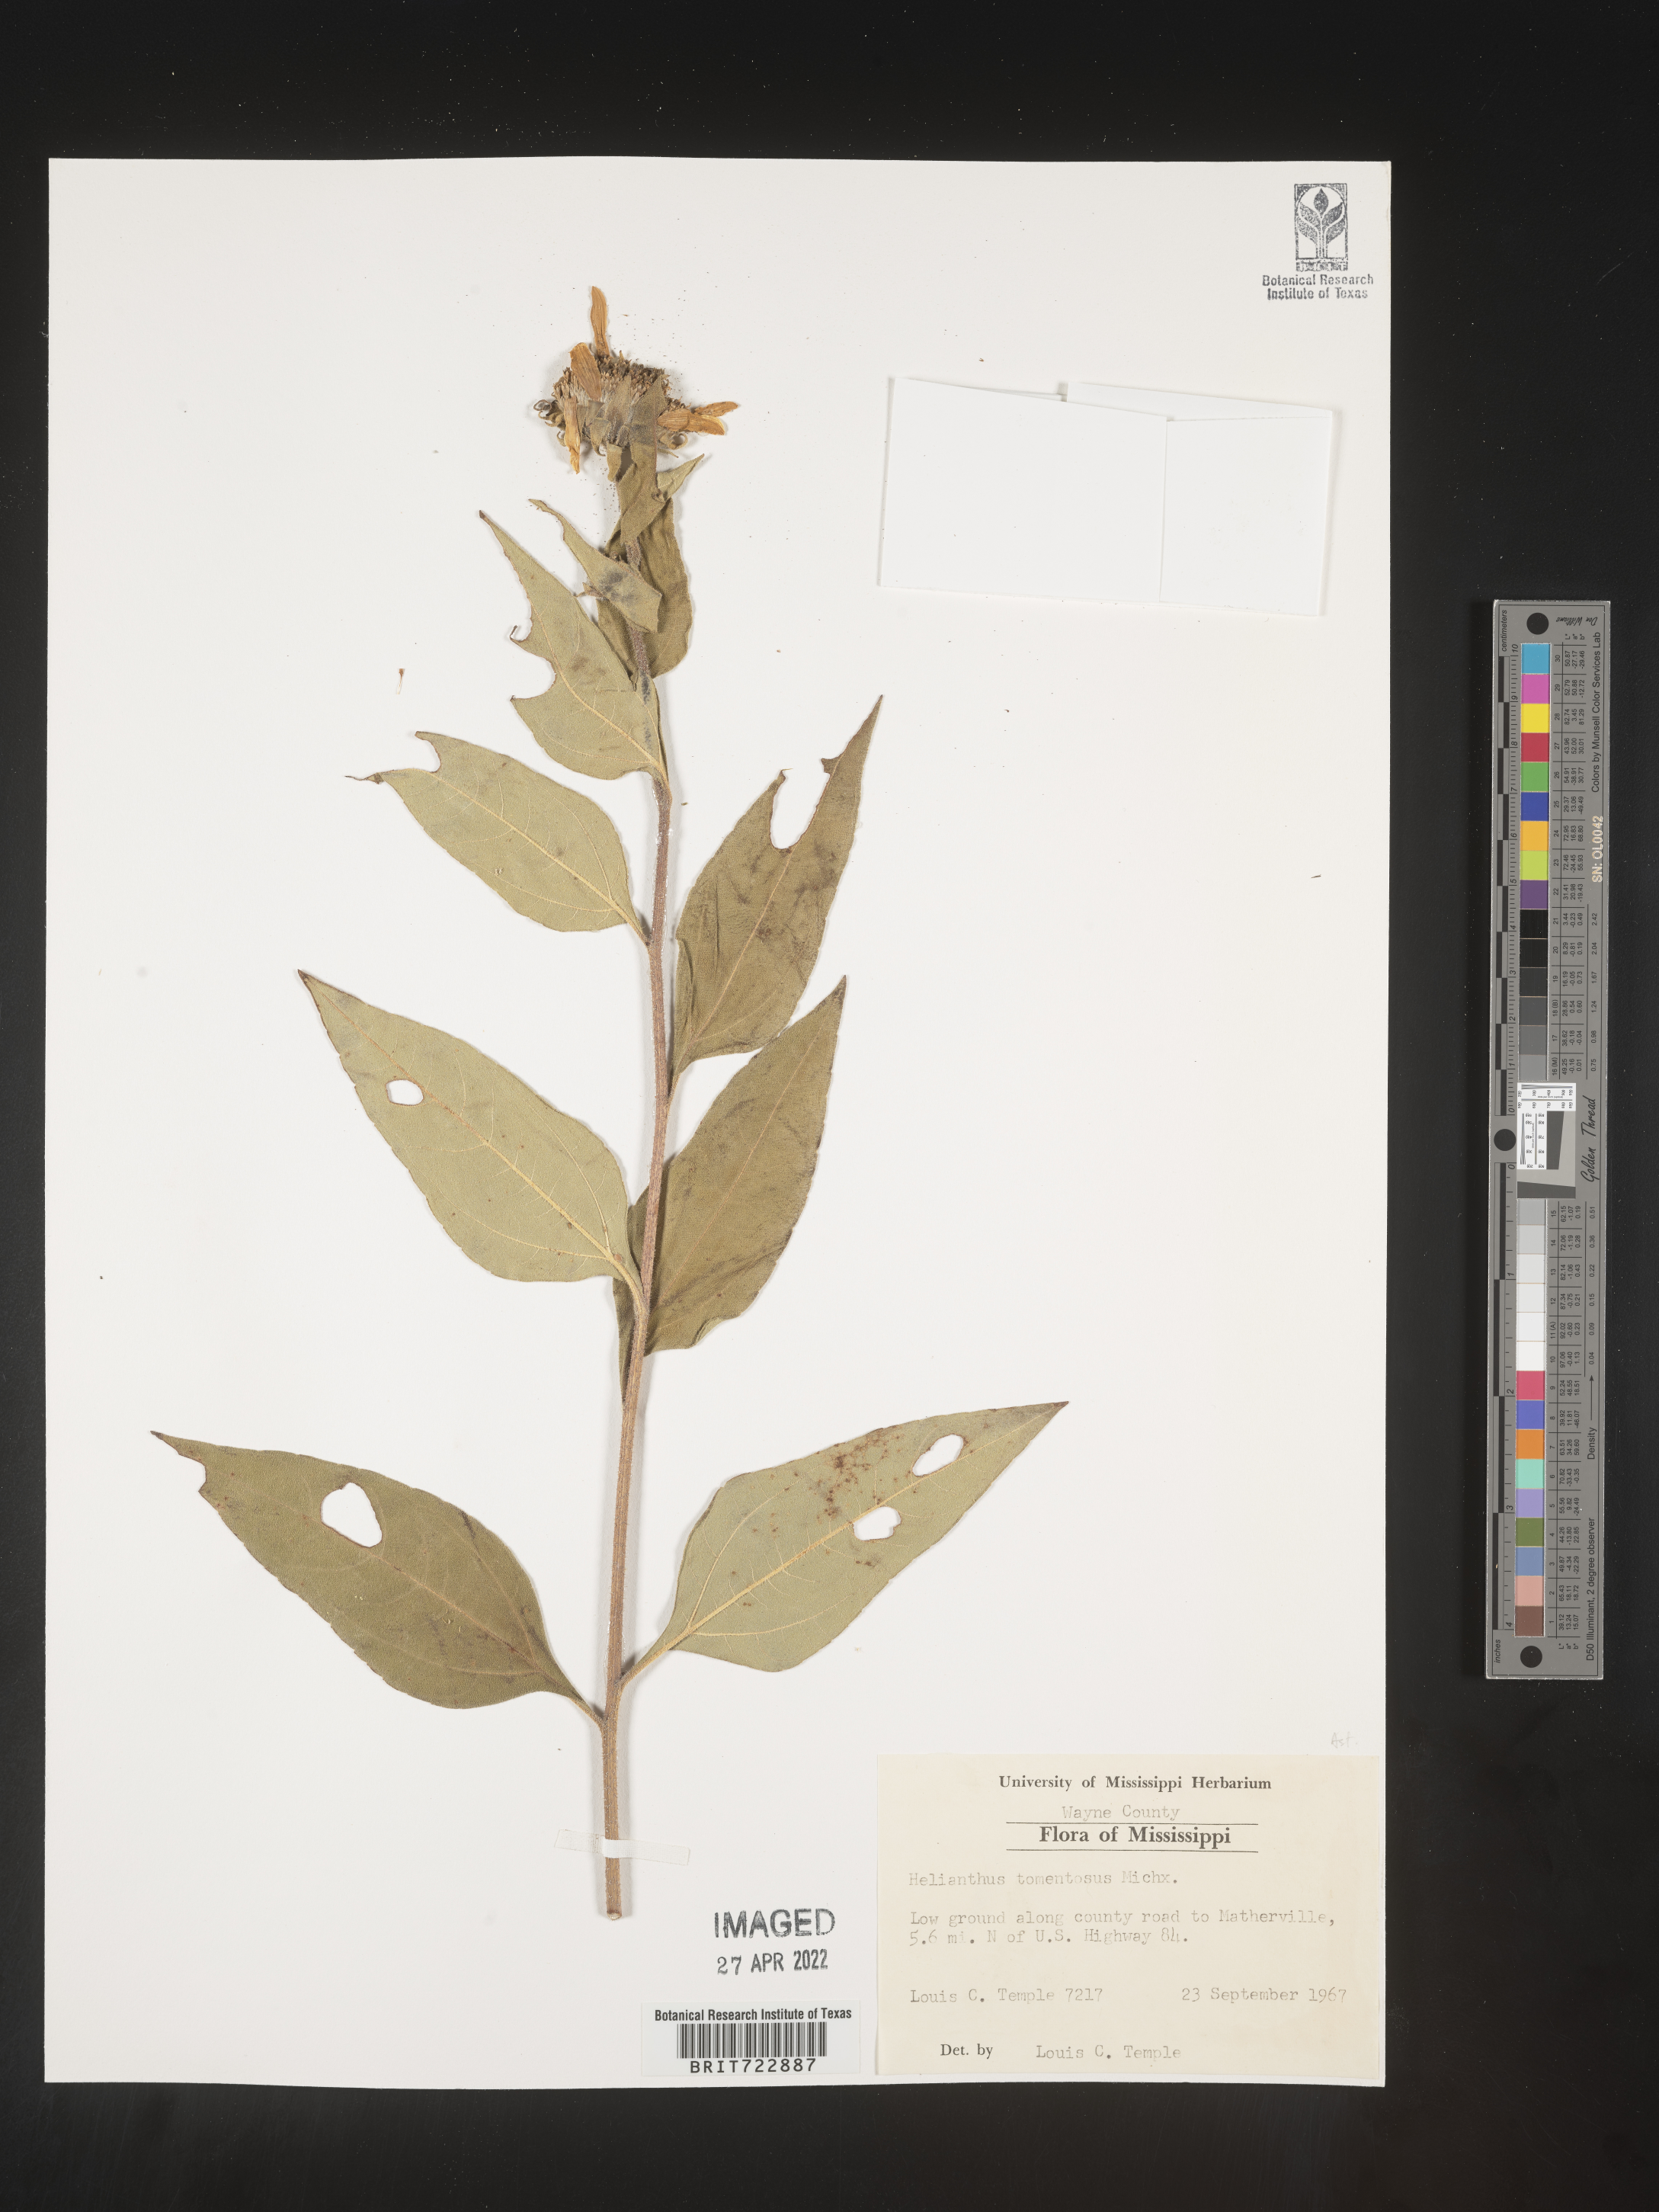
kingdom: Plantae
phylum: Tracheophyta
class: Magnoliopsida
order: Asterales
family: Asteraceae
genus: Helianthus
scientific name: Helianthus tuberosus
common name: Jerusalem artichoke
